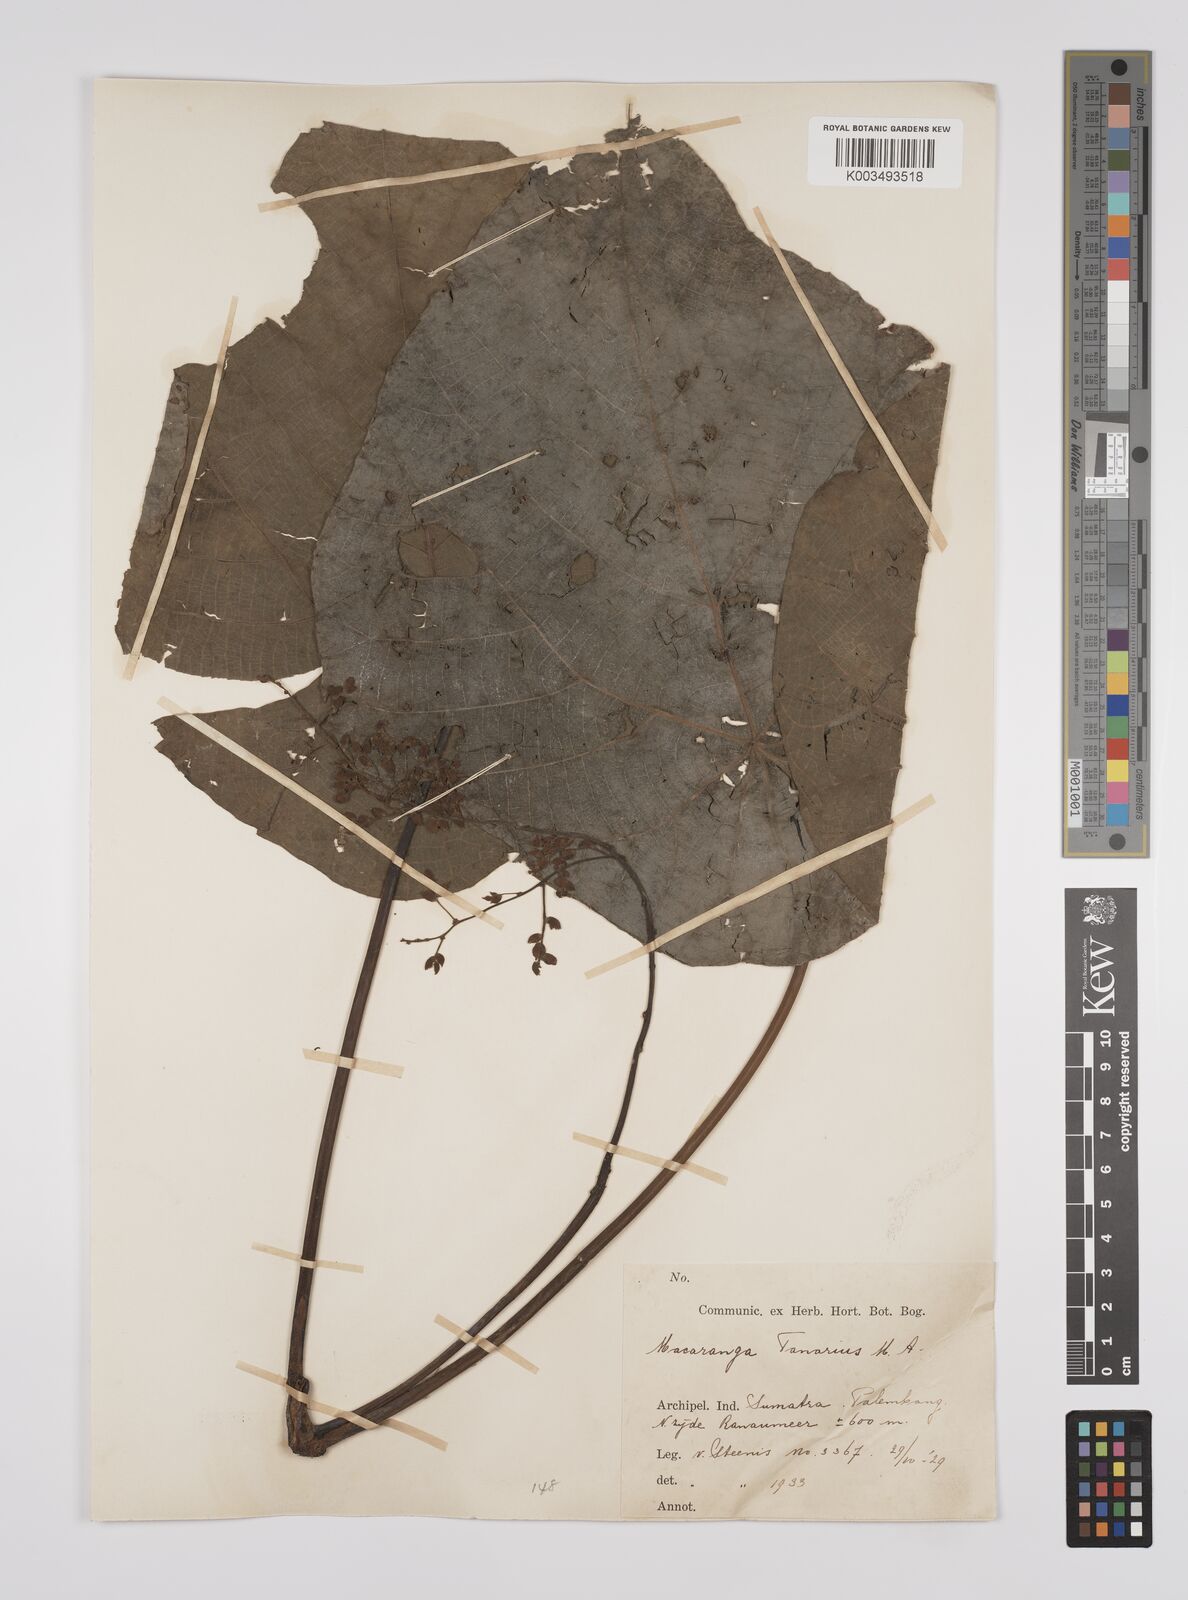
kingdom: Plantae
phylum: Tracheophyta
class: Magnoliopsida
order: Malpighiales
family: Euphorbiaceae
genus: Macaranga
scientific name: Macaranga tanarius
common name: Parasol leaf tree
